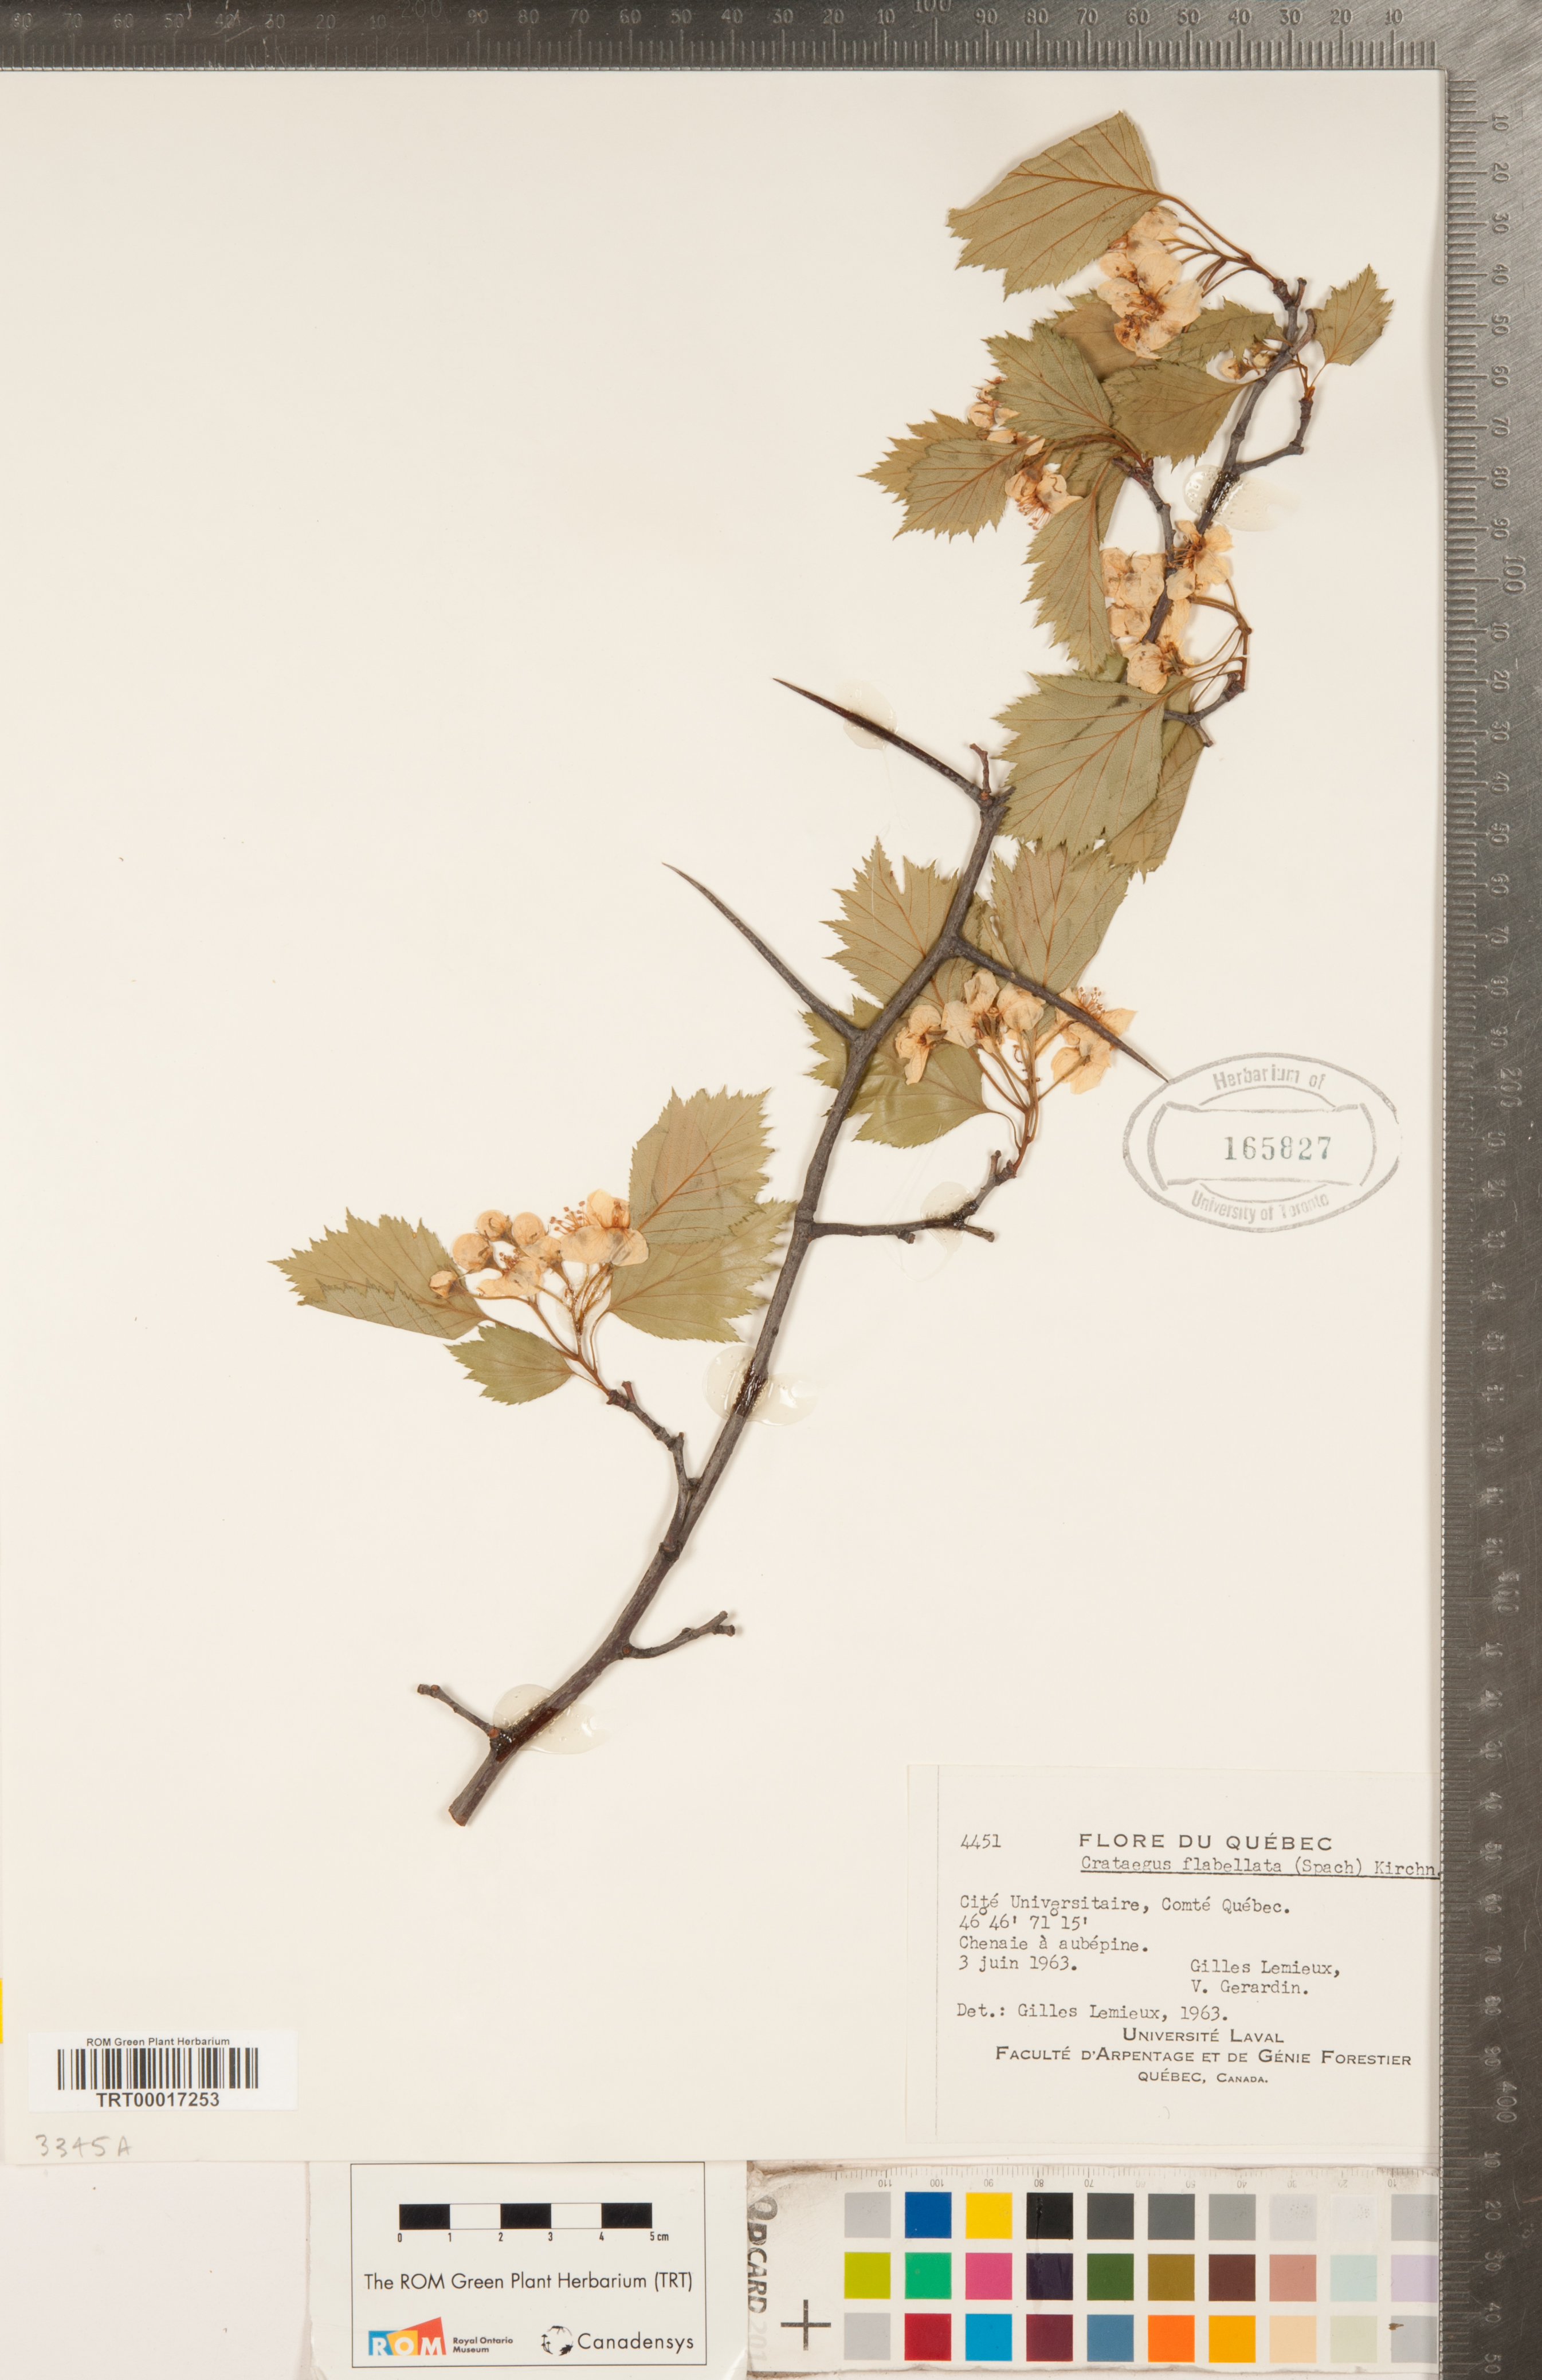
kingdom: Plantae
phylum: Tracheophyta
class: Magnoliopsida
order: Rosales
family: Rosaceae
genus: Crataegus
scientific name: Crataegus flabellata
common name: Bosc's hawthorn
